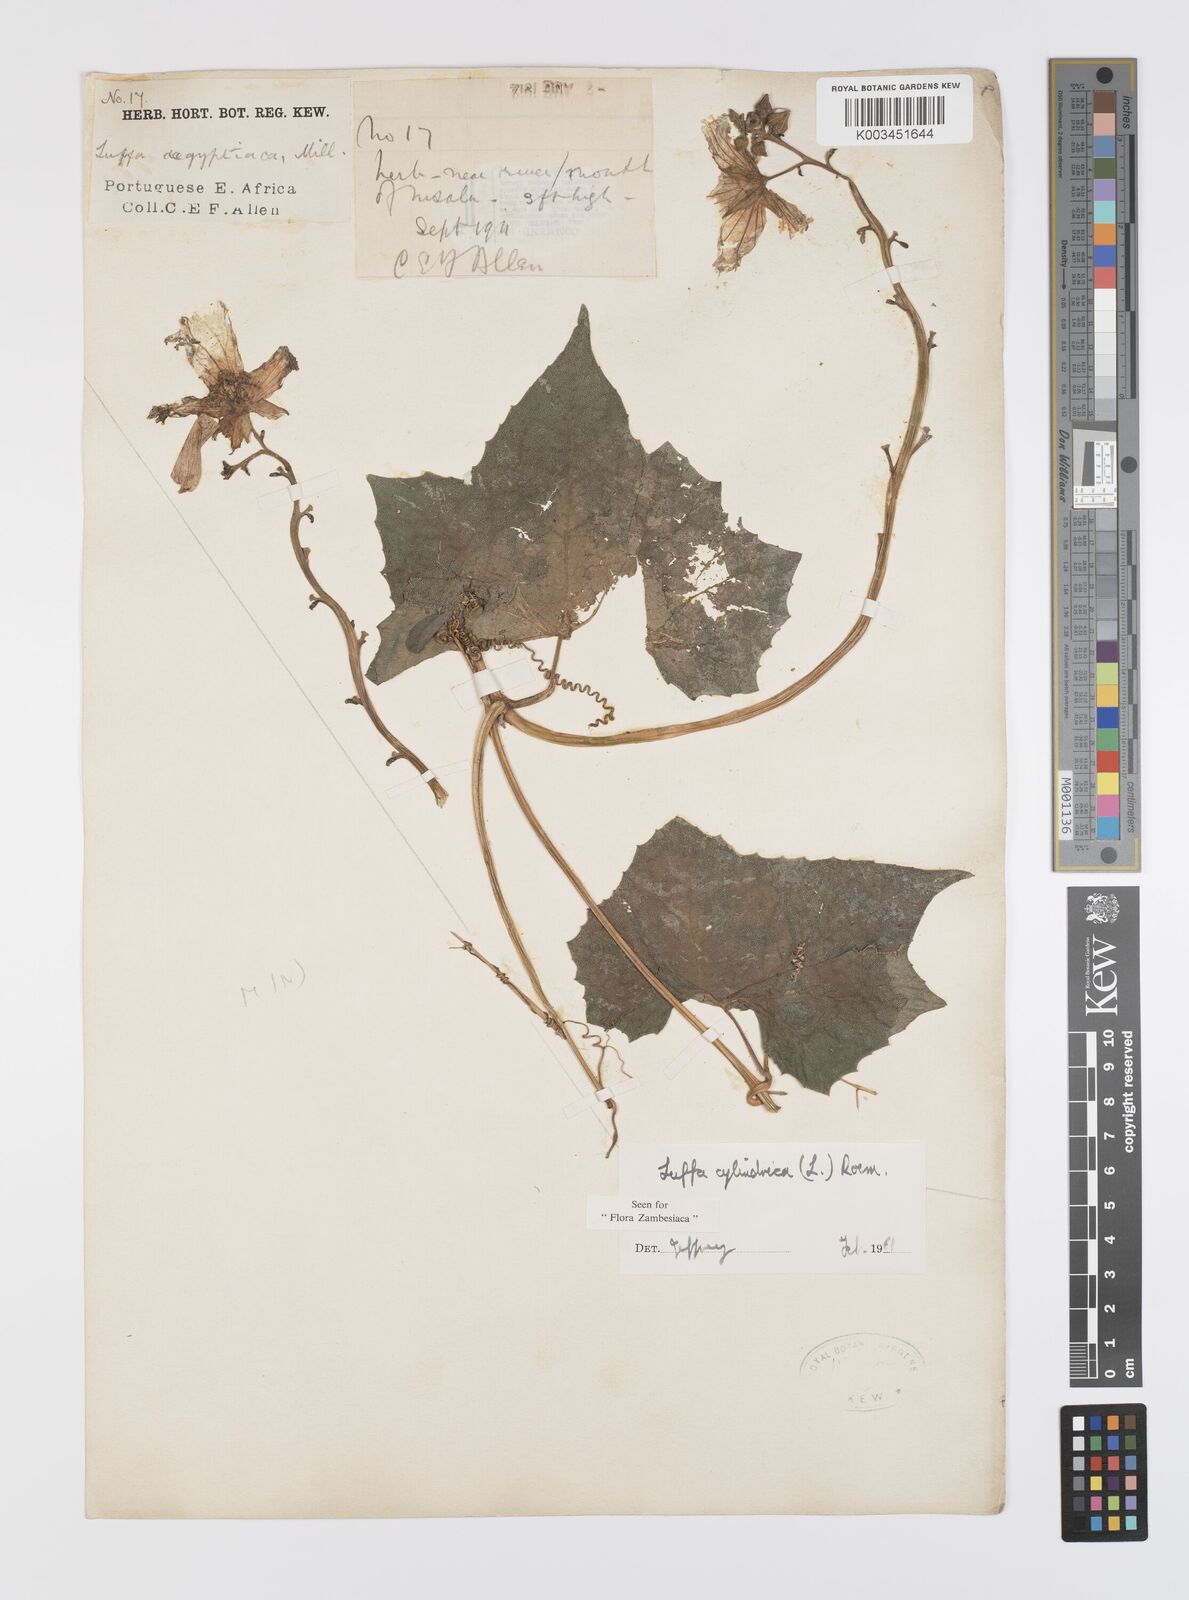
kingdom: Plantae
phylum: Tracheophyta
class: Magnoliopsida
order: Cucurbitales
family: Cucurbitaceae
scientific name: Cucurbitaceae
